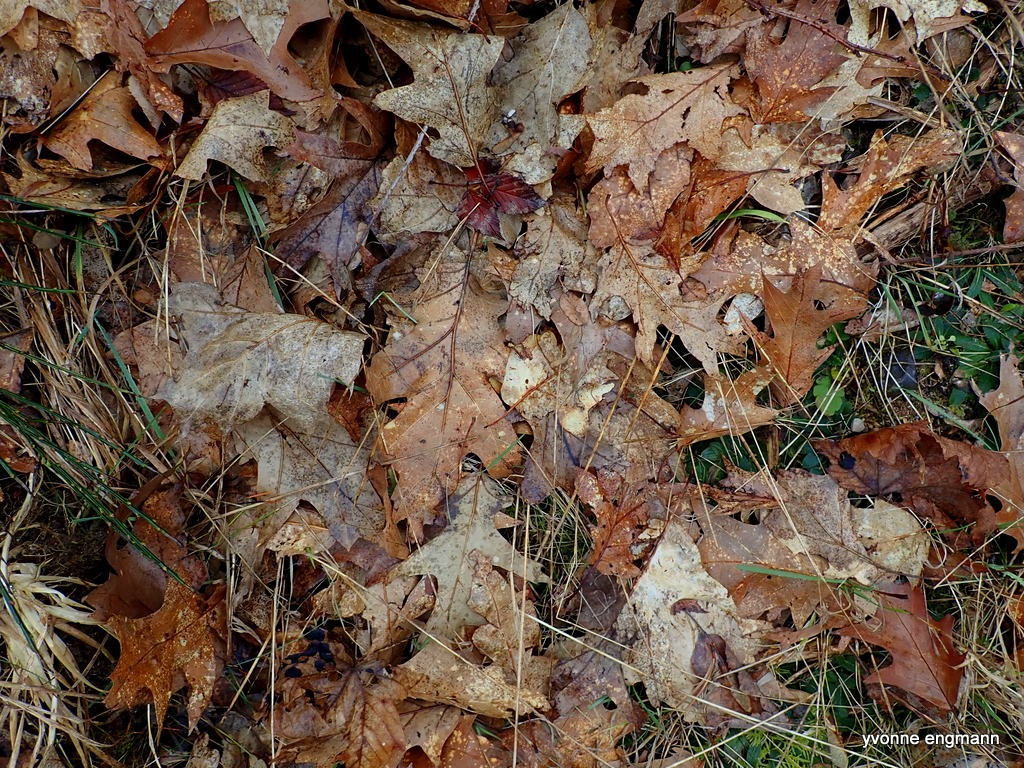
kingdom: Plantae
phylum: Tracheophyta
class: Magnoliopsida
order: Fagales
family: Fagaceae
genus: Quercus
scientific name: Quercus rubra
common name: Rød-eg
